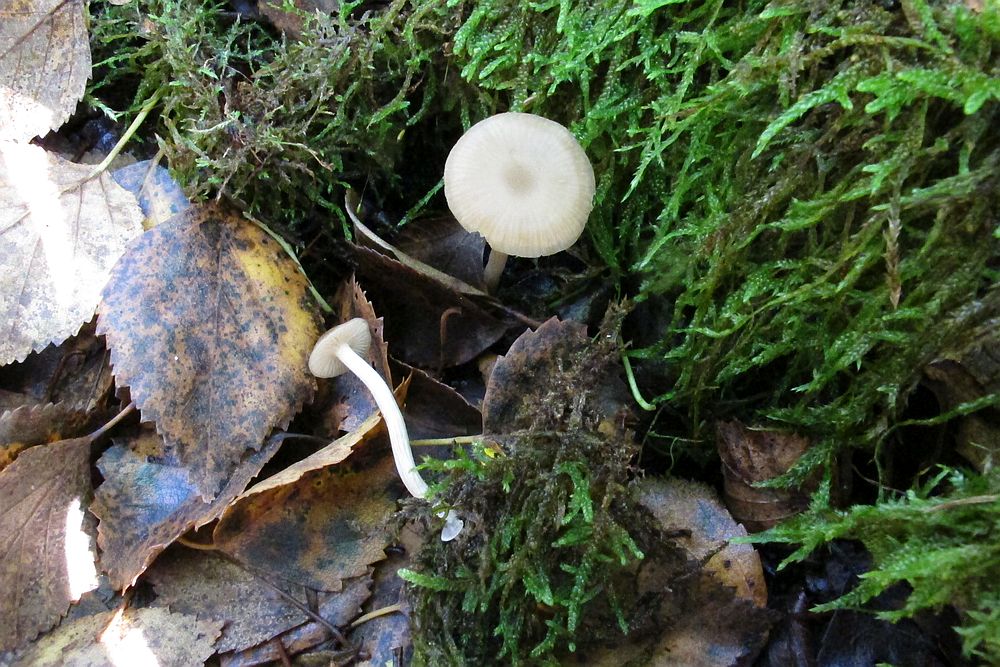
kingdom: Fungi
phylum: Basidiomycota
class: Agaricomycetes
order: Agaricales
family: Entolomataceae
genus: Entoloma
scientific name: Entoloma politum
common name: poleret rødblad
